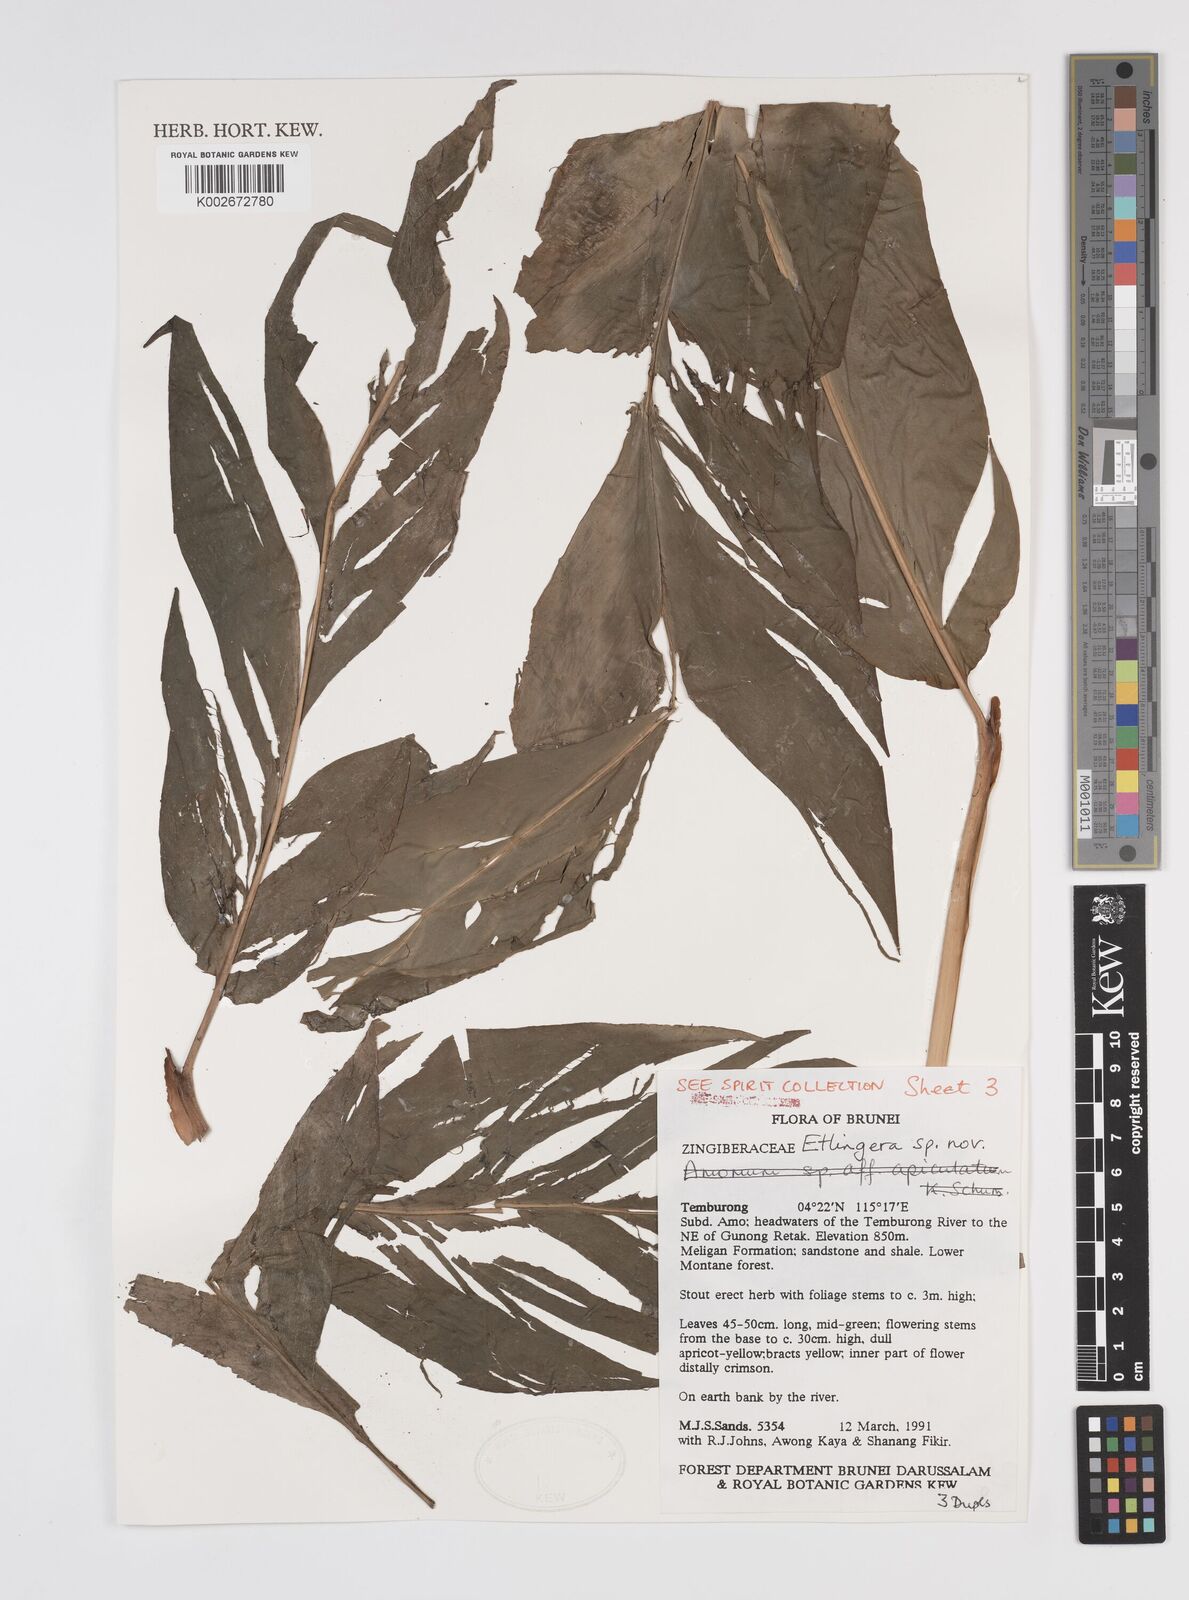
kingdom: Plantae
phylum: Tracheophyta
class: Liliopsida
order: Zingiberales
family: Zingiberaceae
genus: Etlingera
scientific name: Etlingera pubescens
